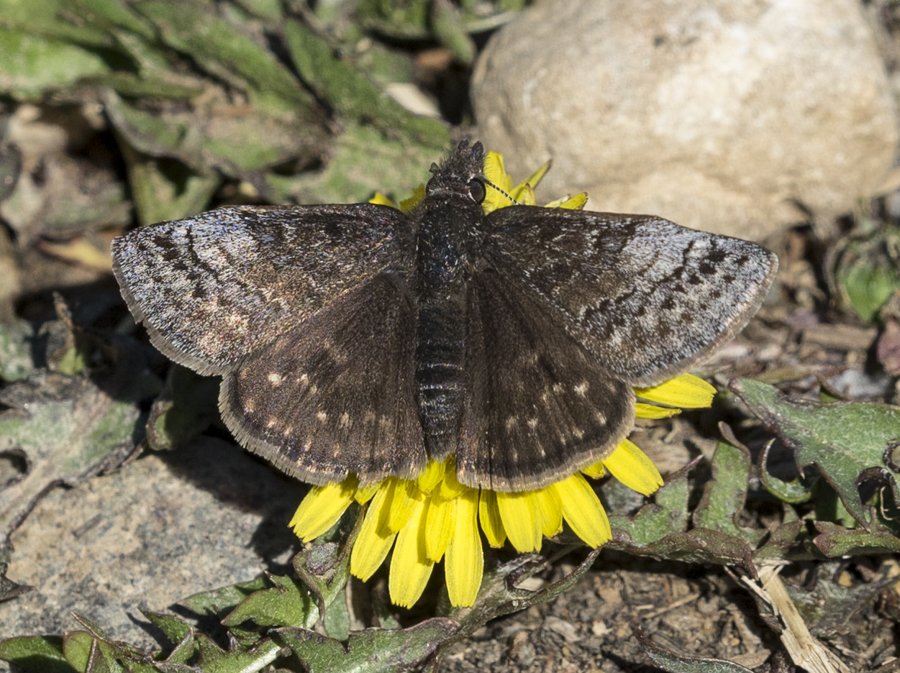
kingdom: Animalia
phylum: Arthropoda
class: Insecta
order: Lepidoptera
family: Hesperiidae
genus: Erynnis
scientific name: Erynnis icelus
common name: Dreamy Duskywing
